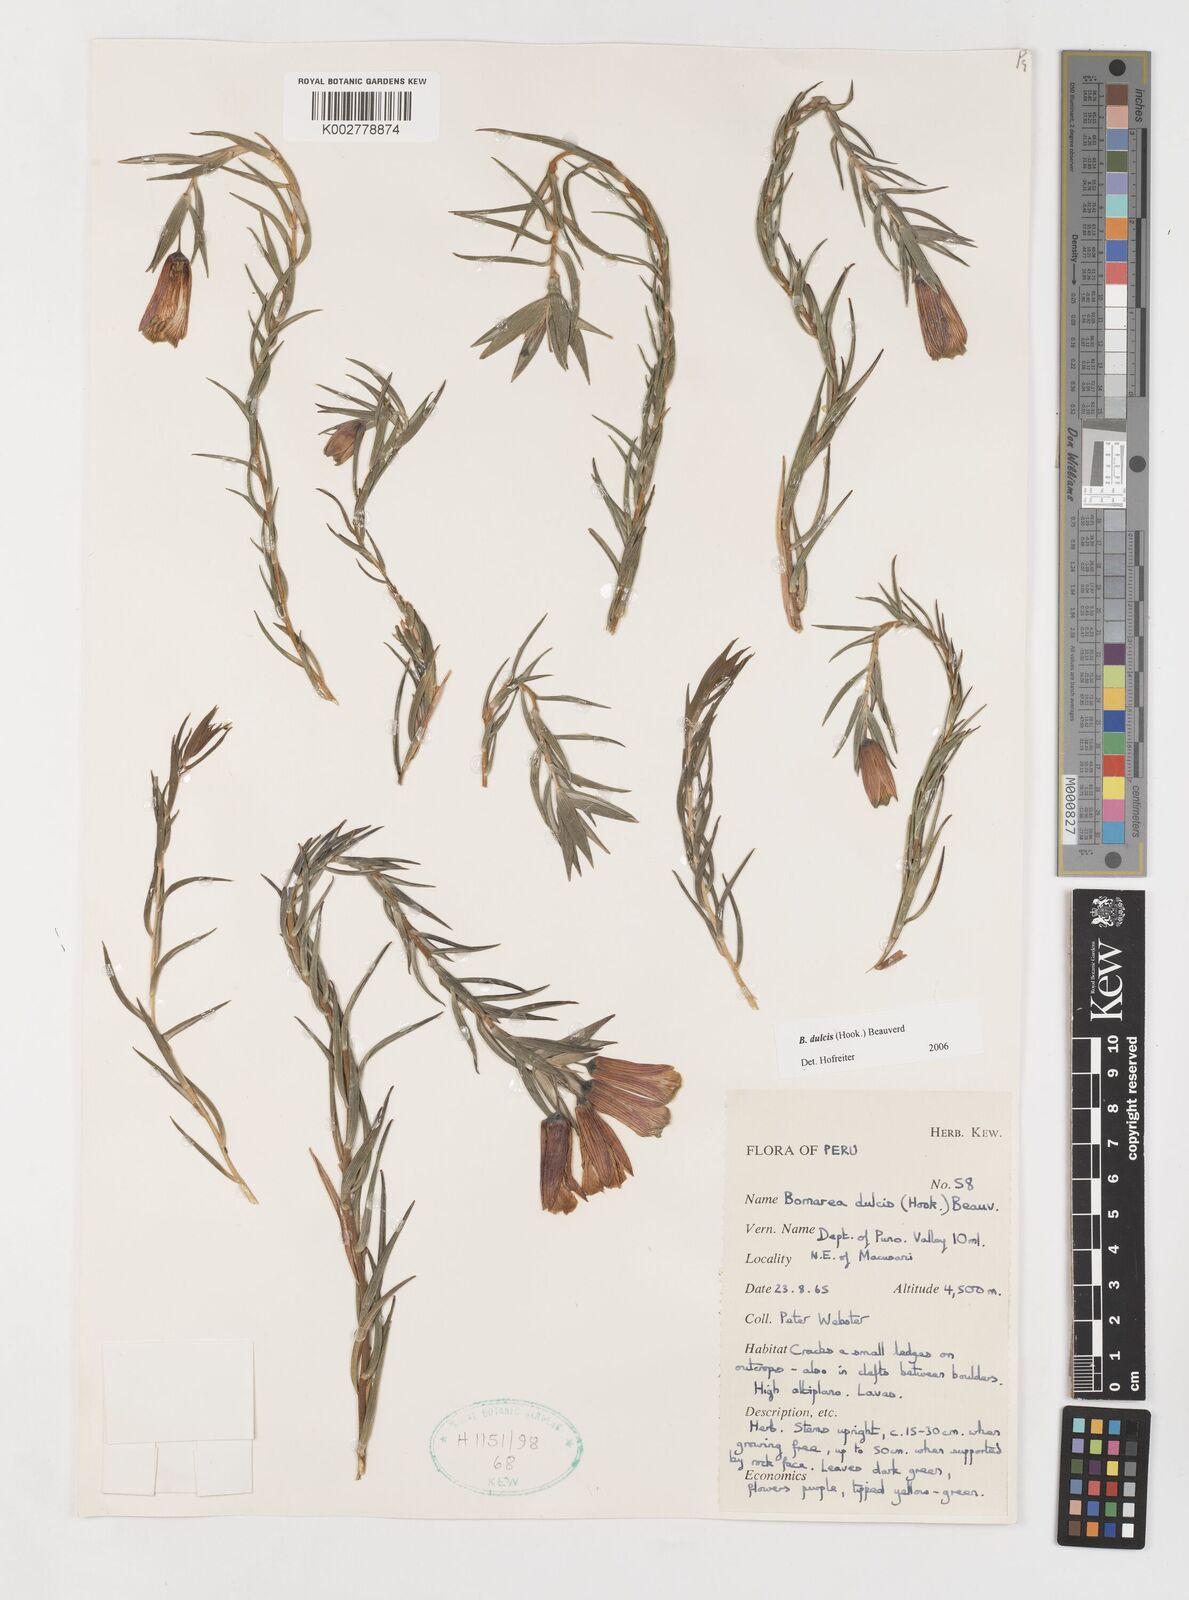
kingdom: Plantae
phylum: Tracheophyta
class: Liliopsida
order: Liliales
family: Alstroemeriaceae
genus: Bomarea
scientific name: Bomarea dulcis
